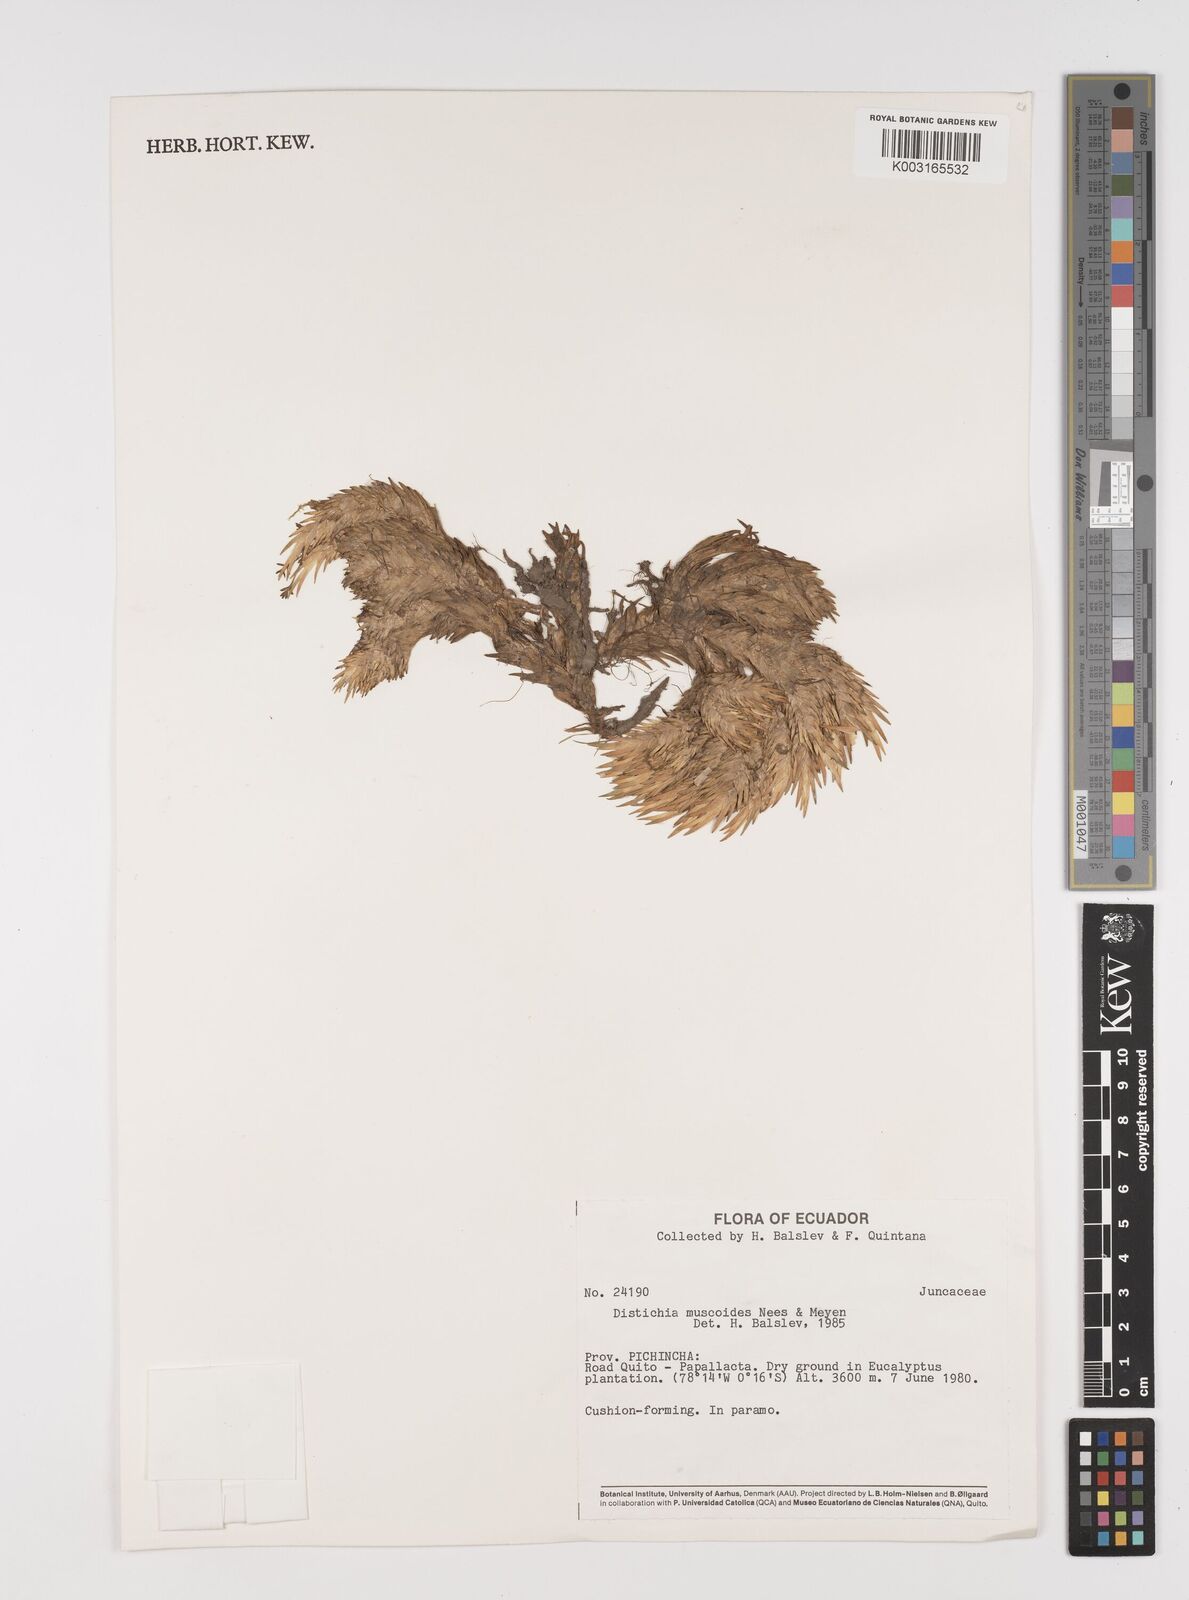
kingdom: Plantae
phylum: Tracheophyta
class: Liliopsida
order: Poales
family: Juncaceae
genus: Distichia
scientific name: Distichia muscoides
